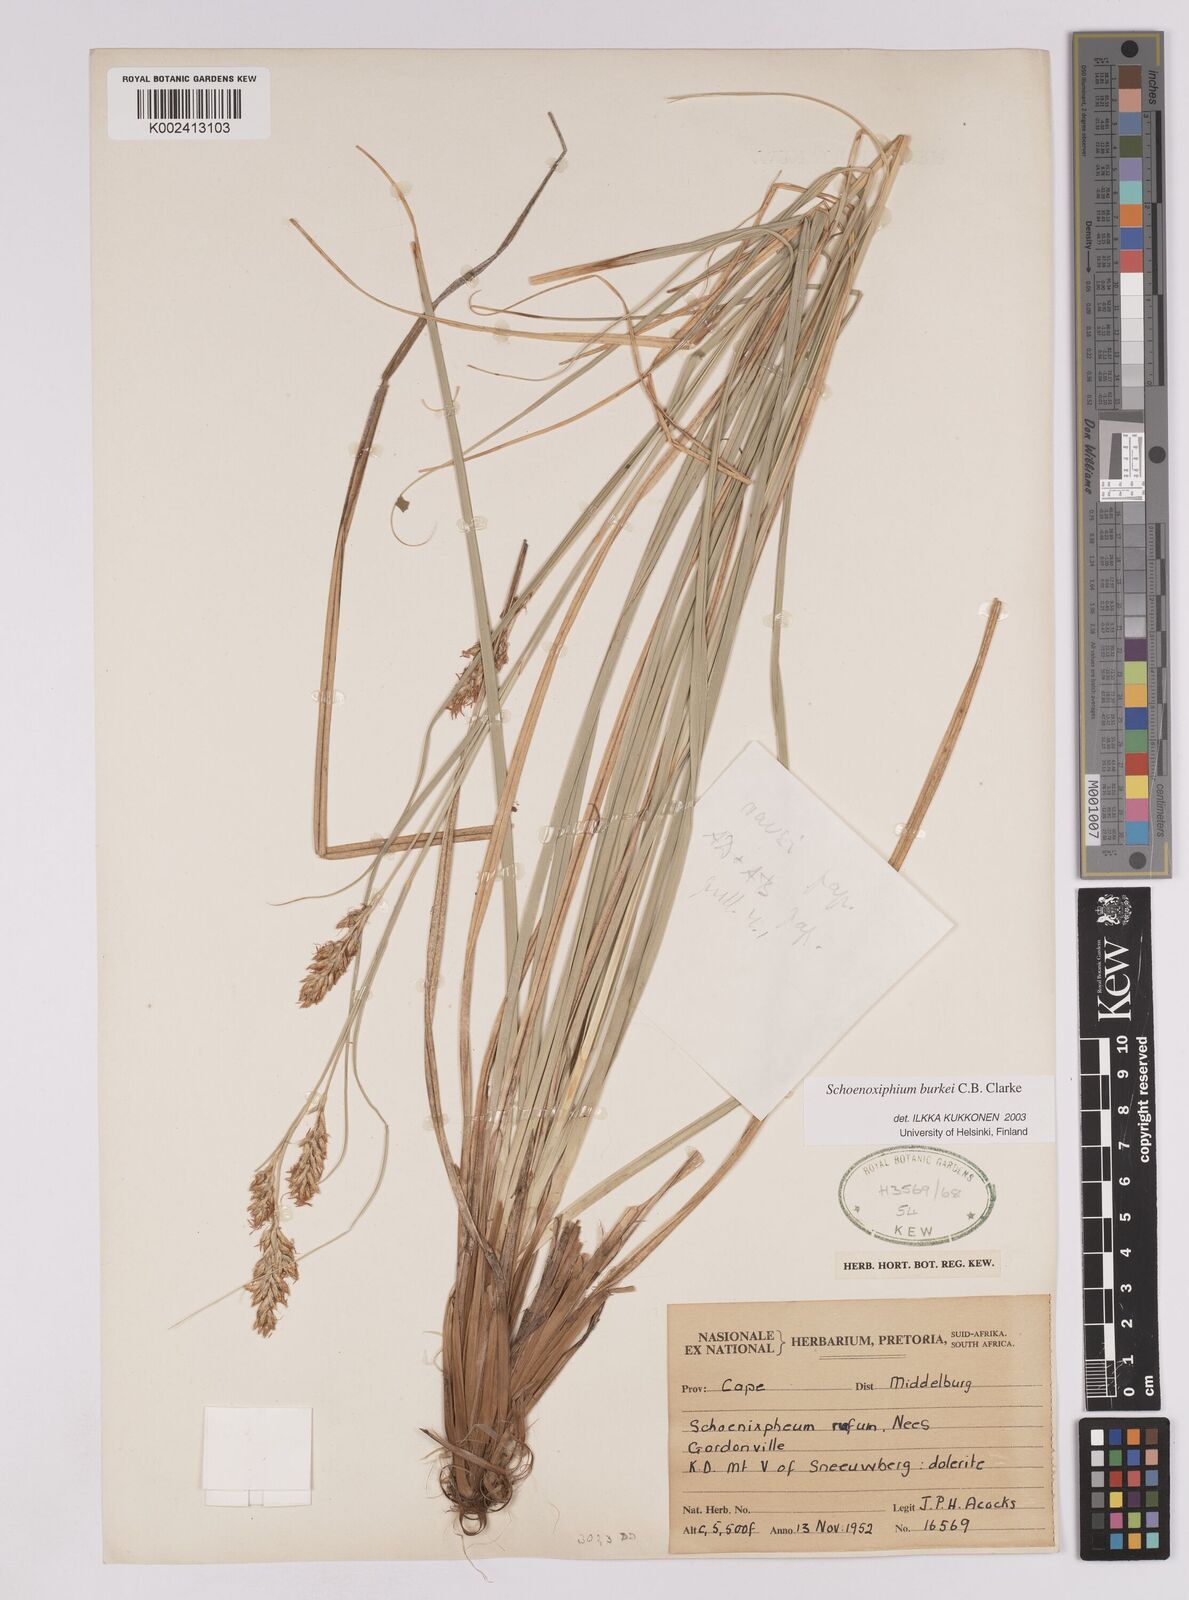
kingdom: Plantae
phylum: Tracheophyta
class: Liliopsida
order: Poales
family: Cyperaceae
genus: Carex
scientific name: Carex burkei
